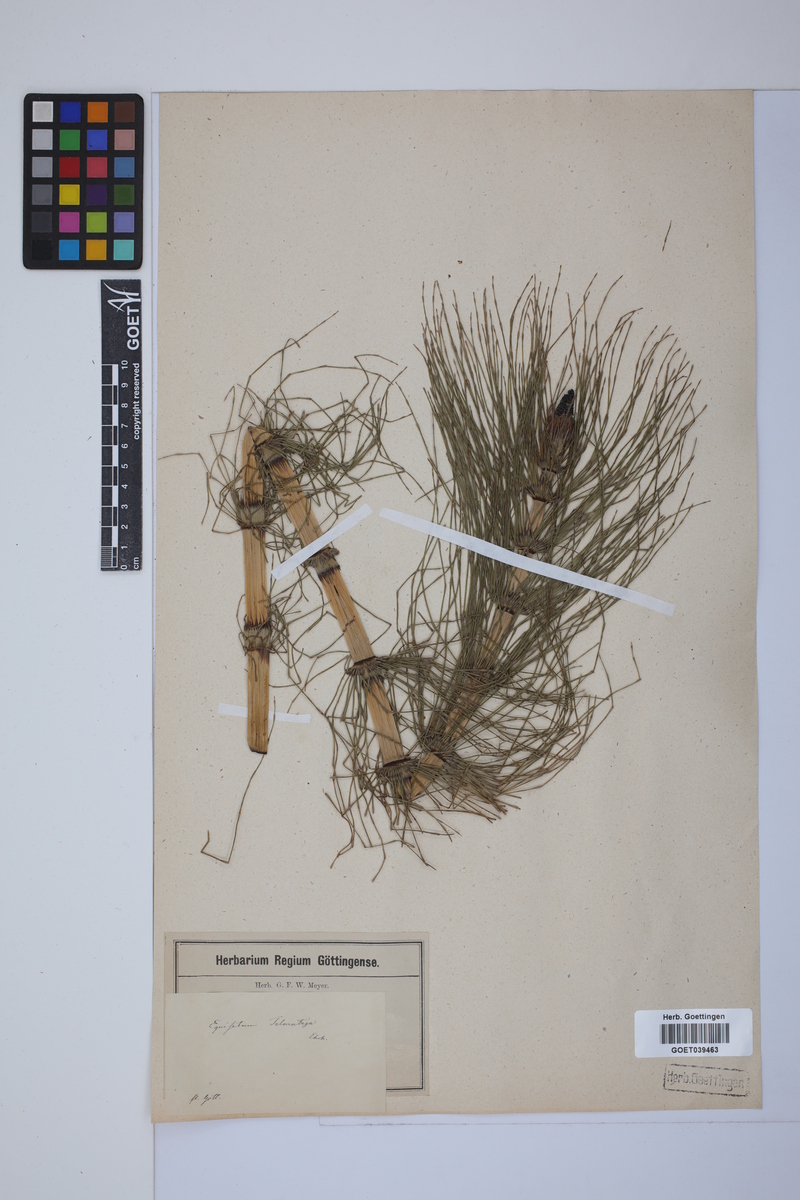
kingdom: Plantae
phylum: Tracheophyta
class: Polypodiopsida
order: Equisetales
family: Equisetaceae
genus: Equisetum
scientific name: Equisetum telmateia
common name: Great horsetail
